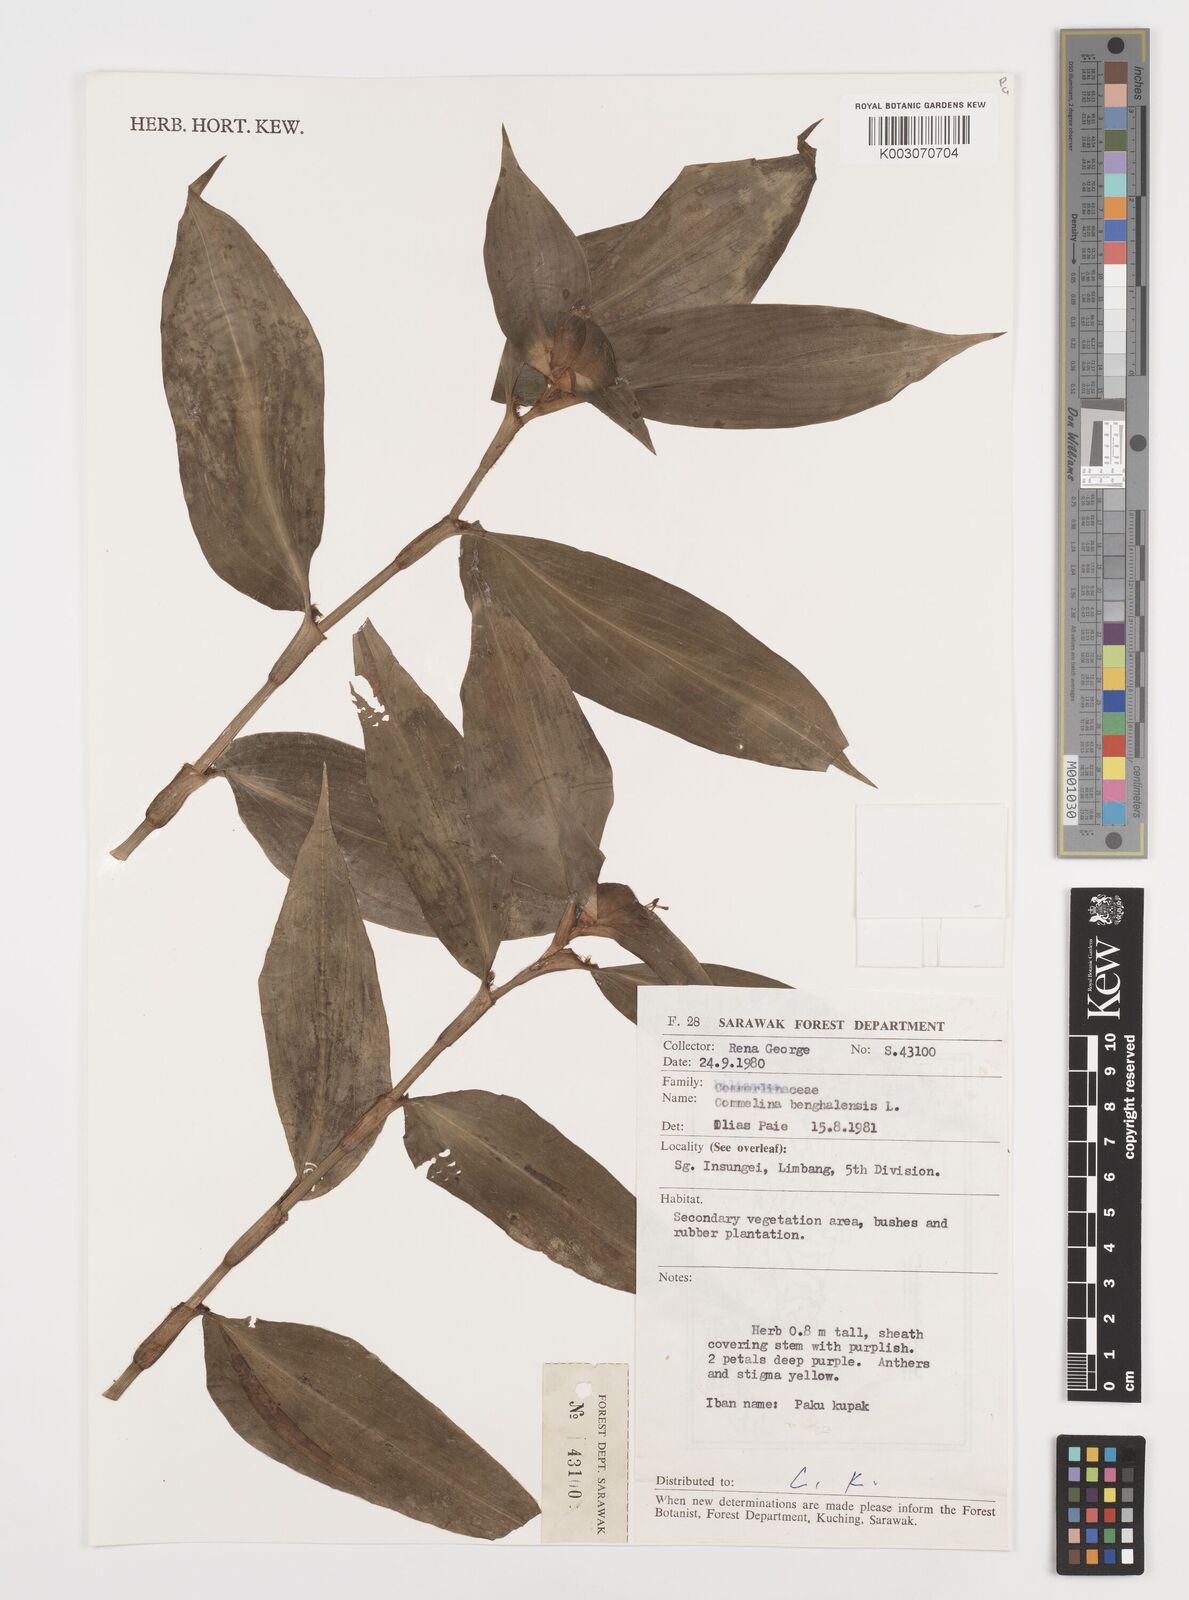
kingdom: Plantae
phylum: Tracheophyta
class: Liliopsida
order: Commelinales
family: Commelinaceae
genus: Commelina
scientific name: Commelina benghalensis
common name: Jio
